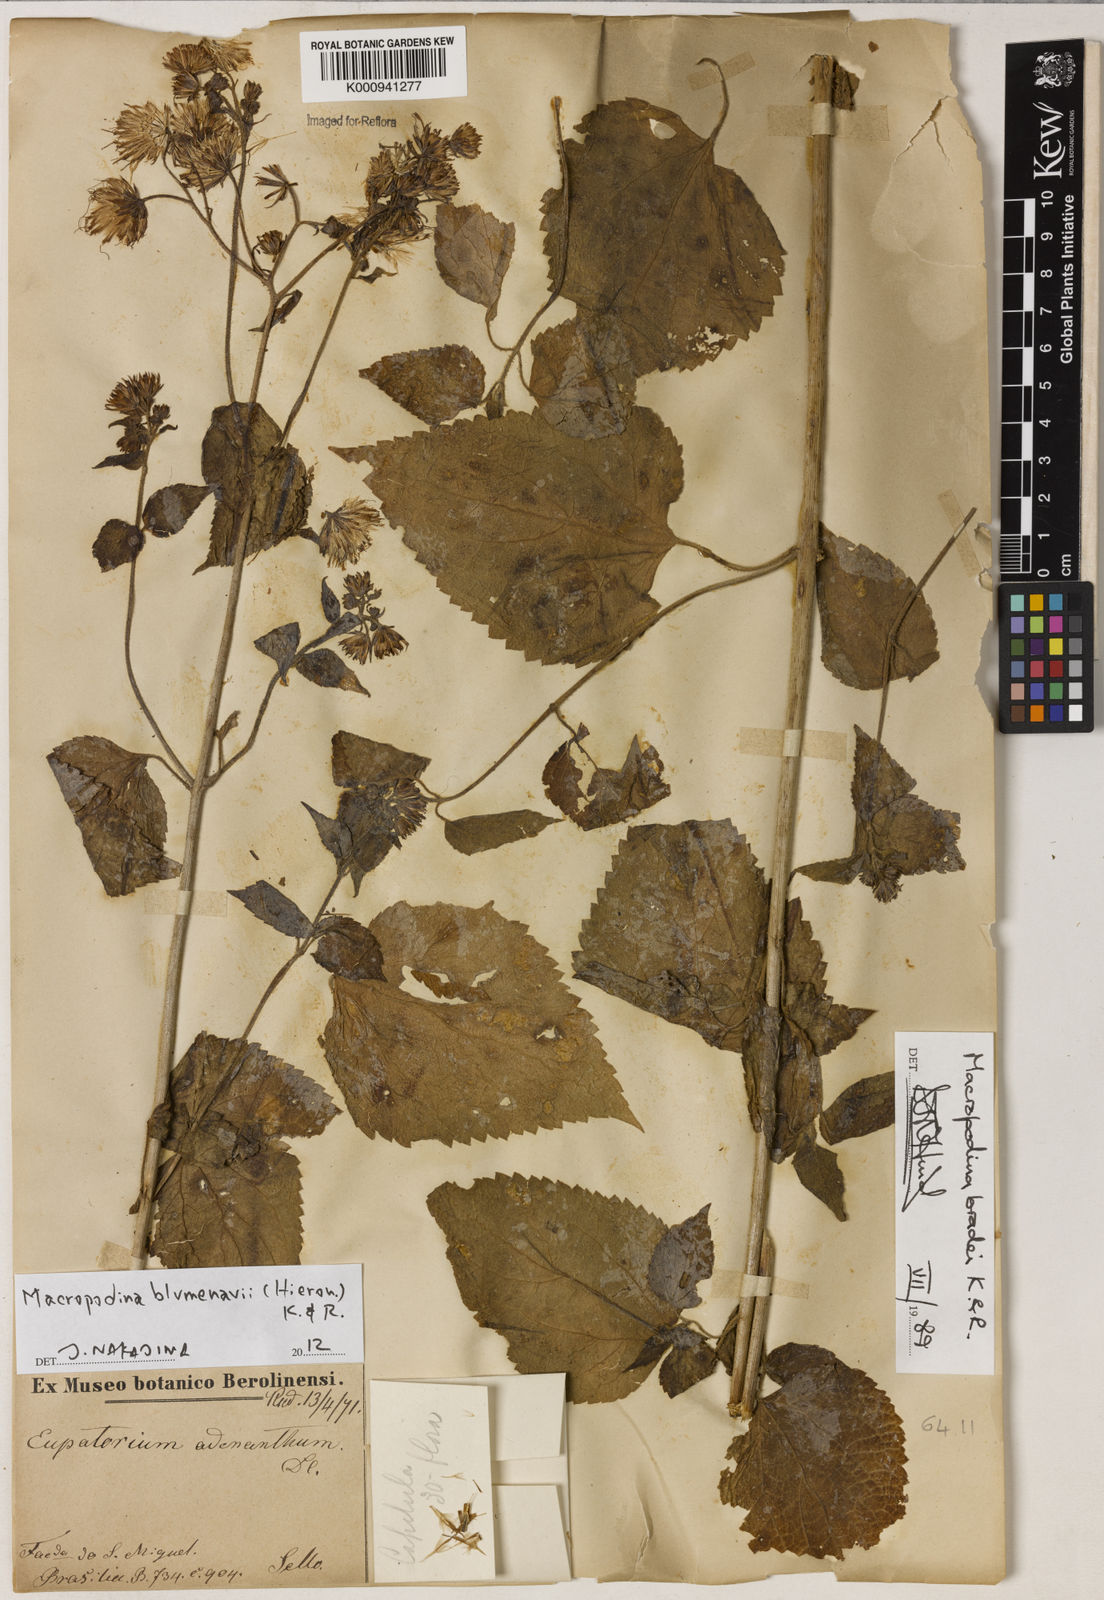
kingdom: Plantae
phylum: Tracheophyta
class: Magnoliopsida
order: Asterales
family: Asteraceae
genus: Macropodina
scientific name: Macropodina bradei
